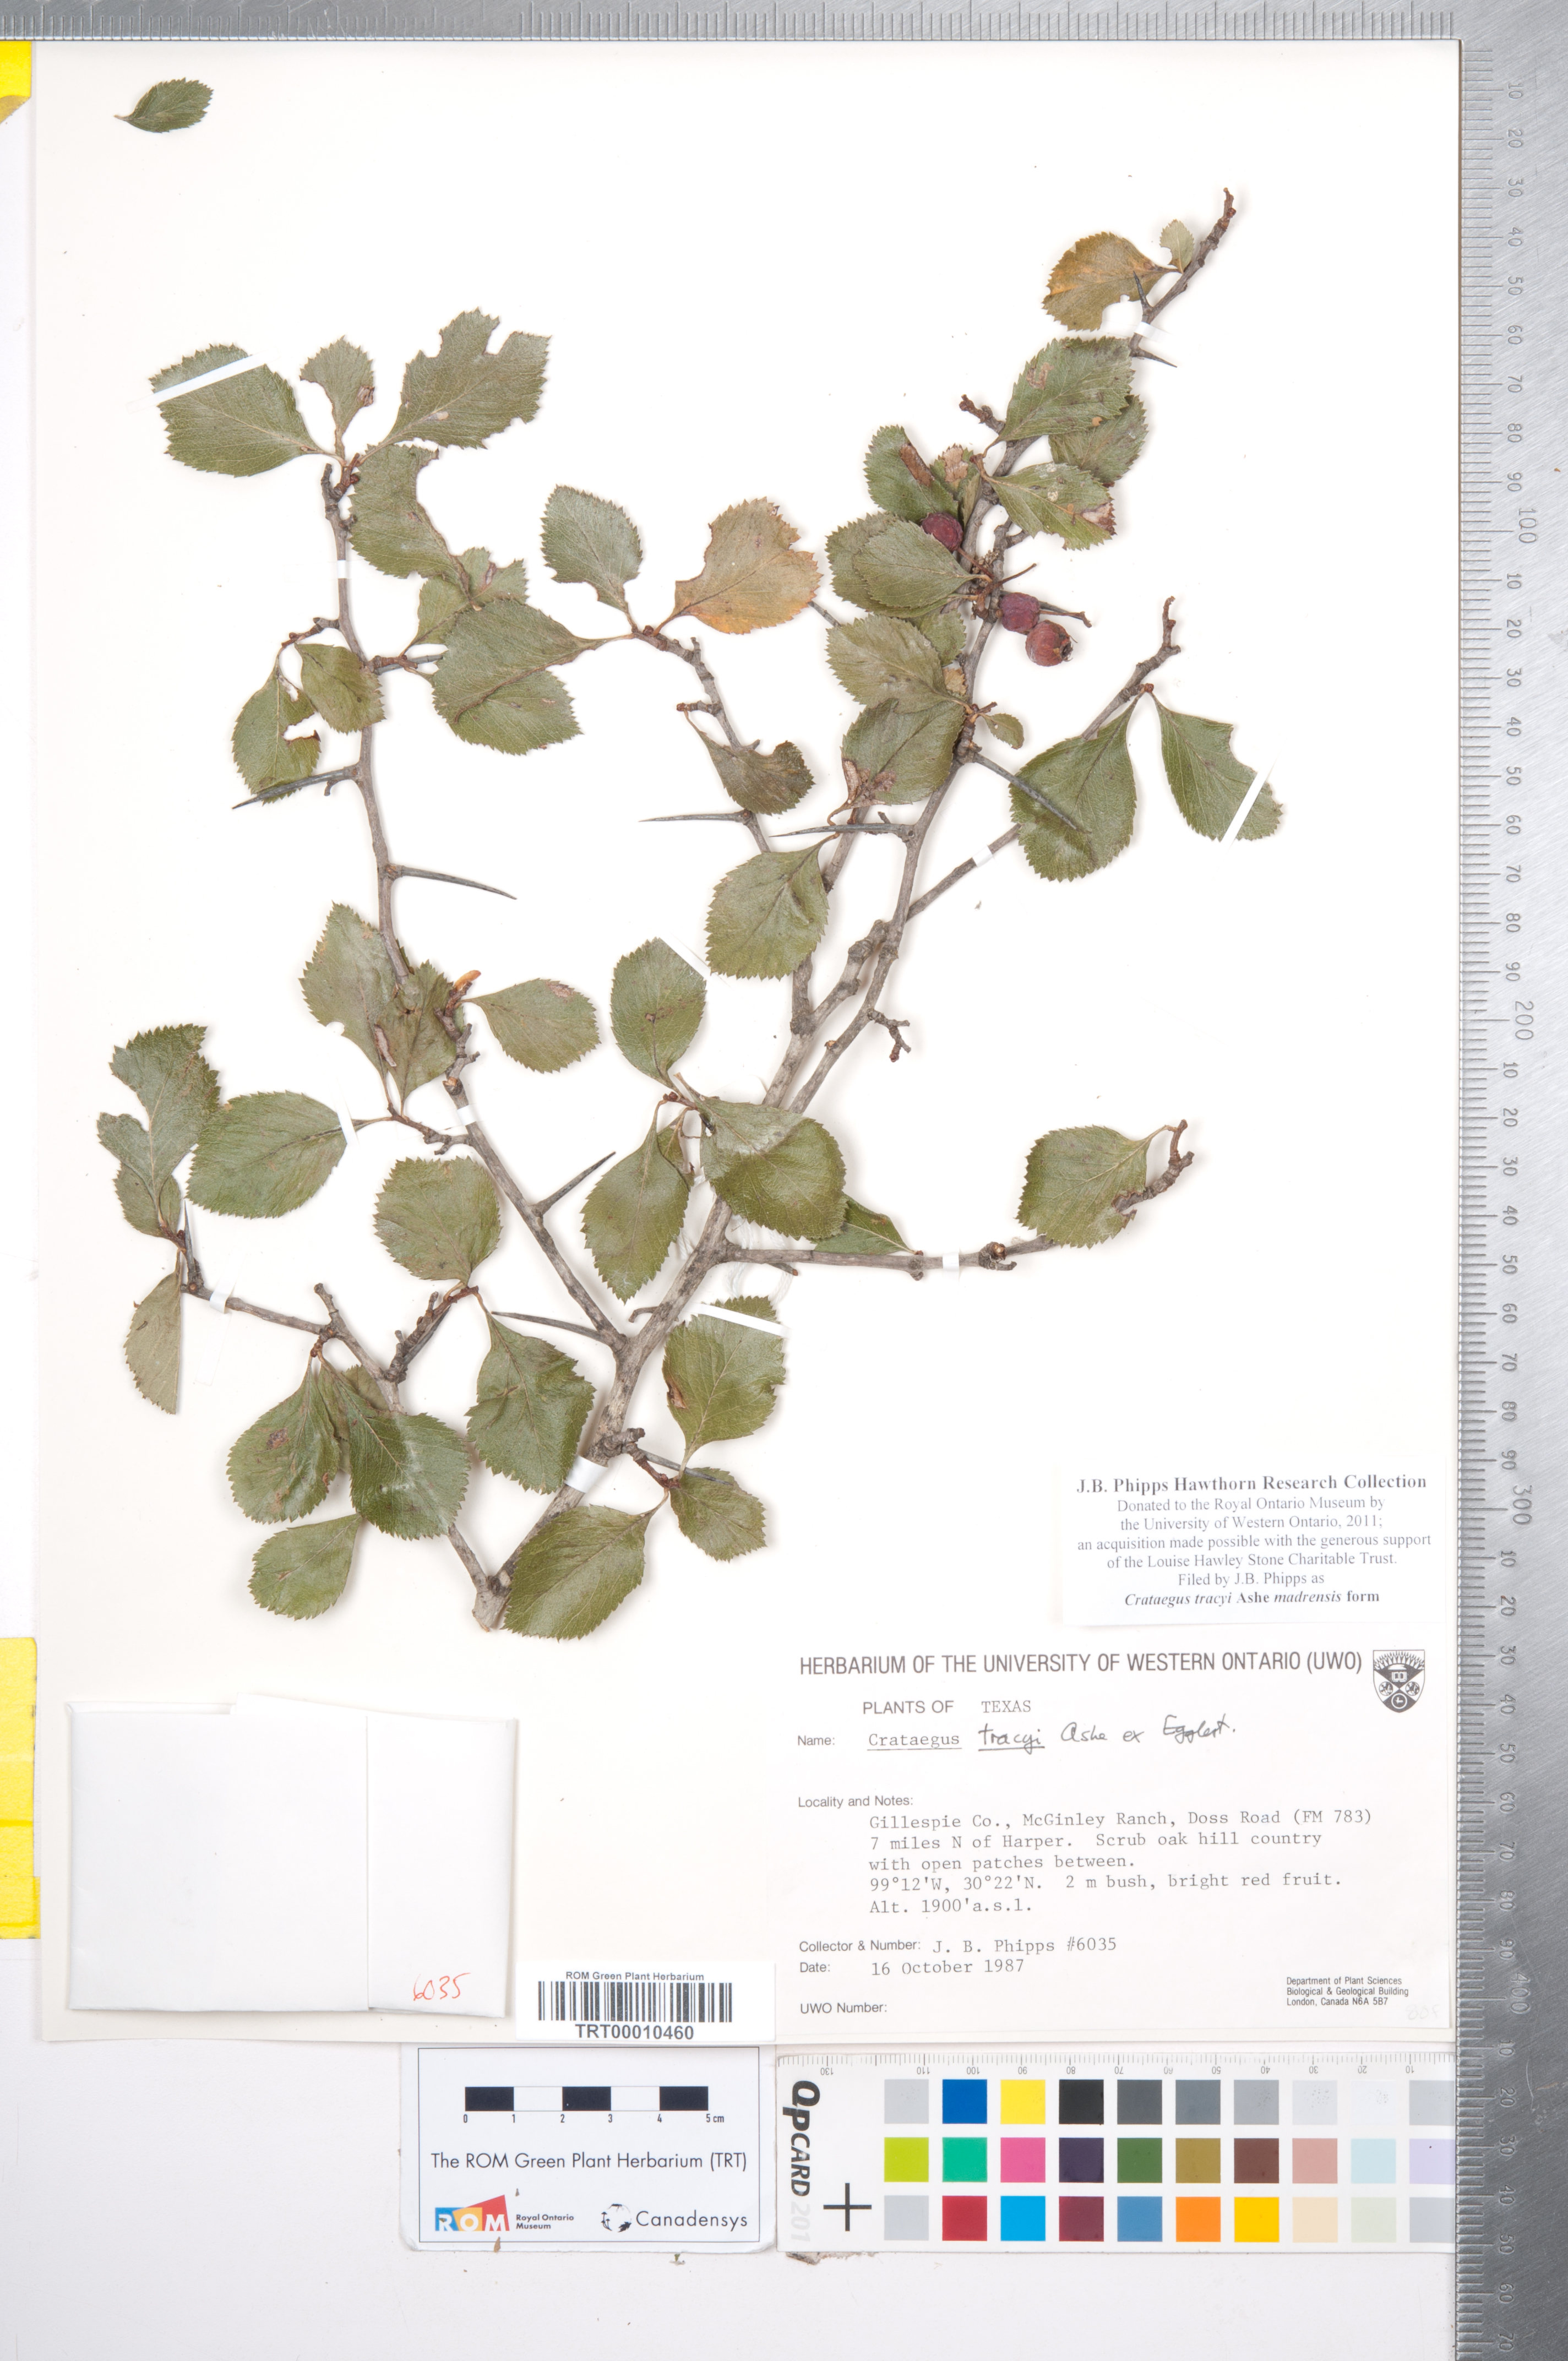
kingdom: Plantae
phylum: Tracheophyta
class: Magnoliopsida
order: Rosales
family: Rosaceae
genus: Crataegus
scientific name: Crataegus tracyi
